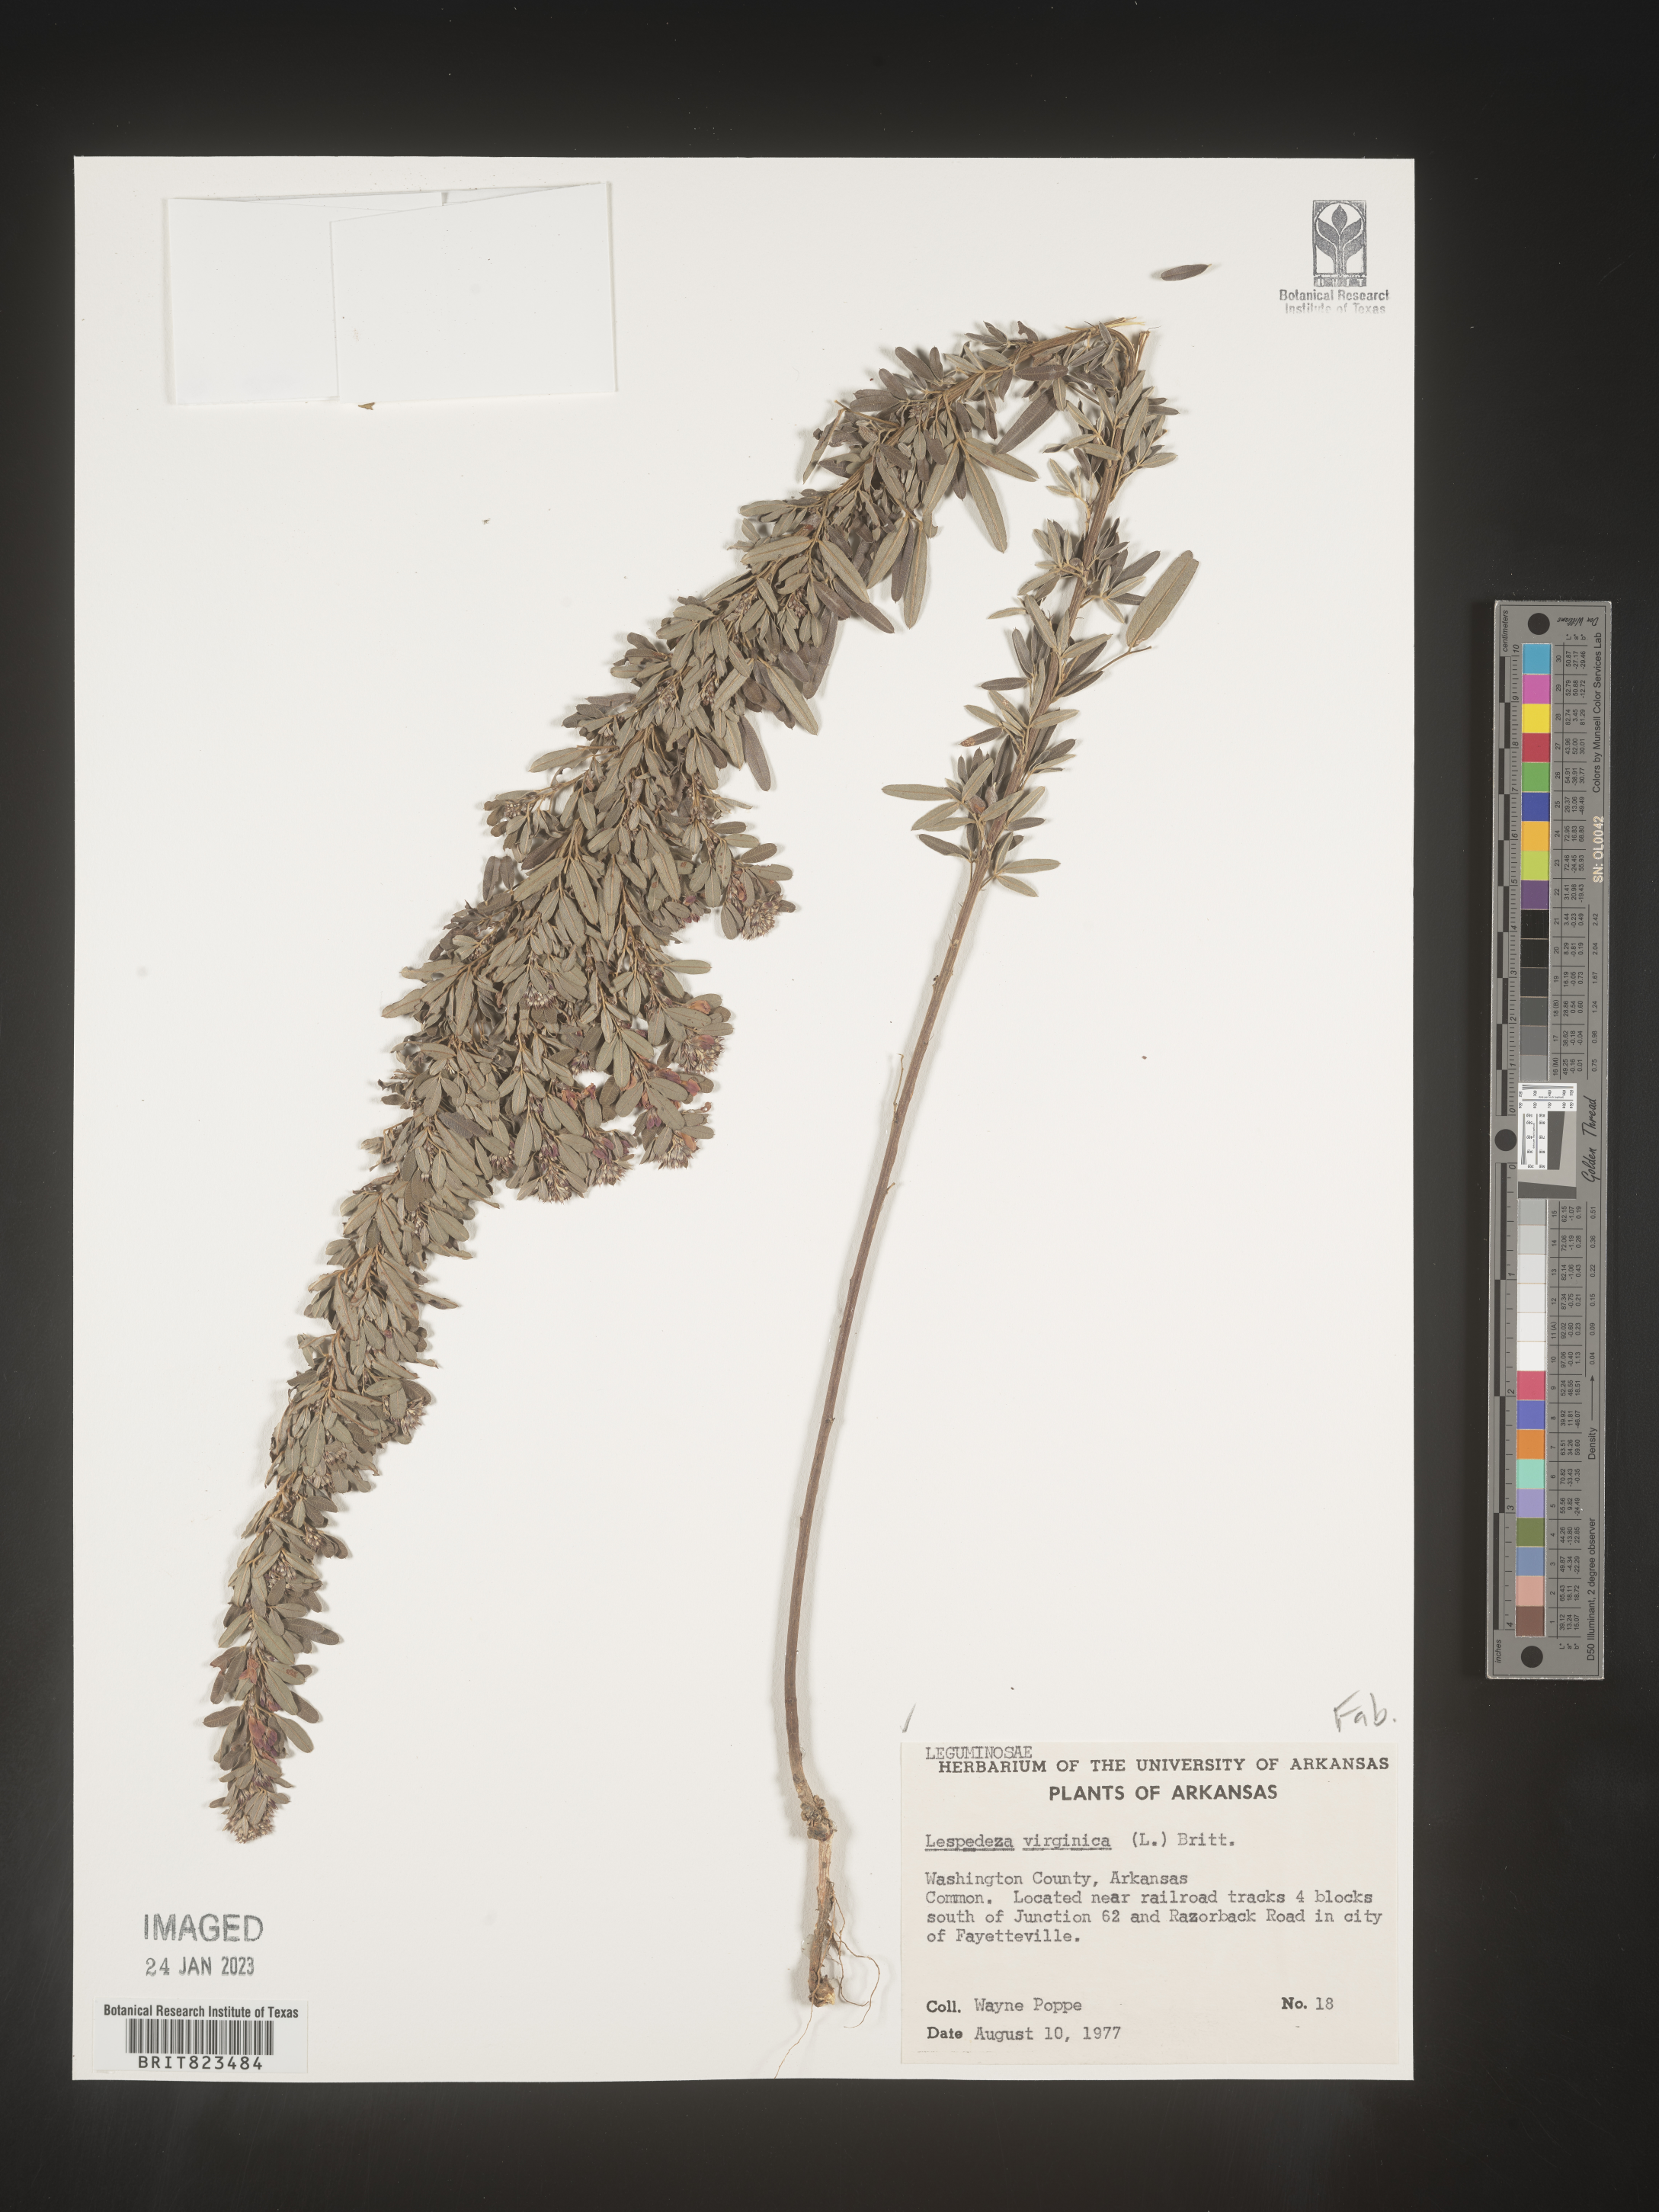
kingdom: Plantae
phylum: Tracheophyta
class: Magnoliopsida
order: Fabales
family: Fabaceae
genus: Lespedeza
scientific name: Lespedeza virginica
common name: Slender bush-clover
